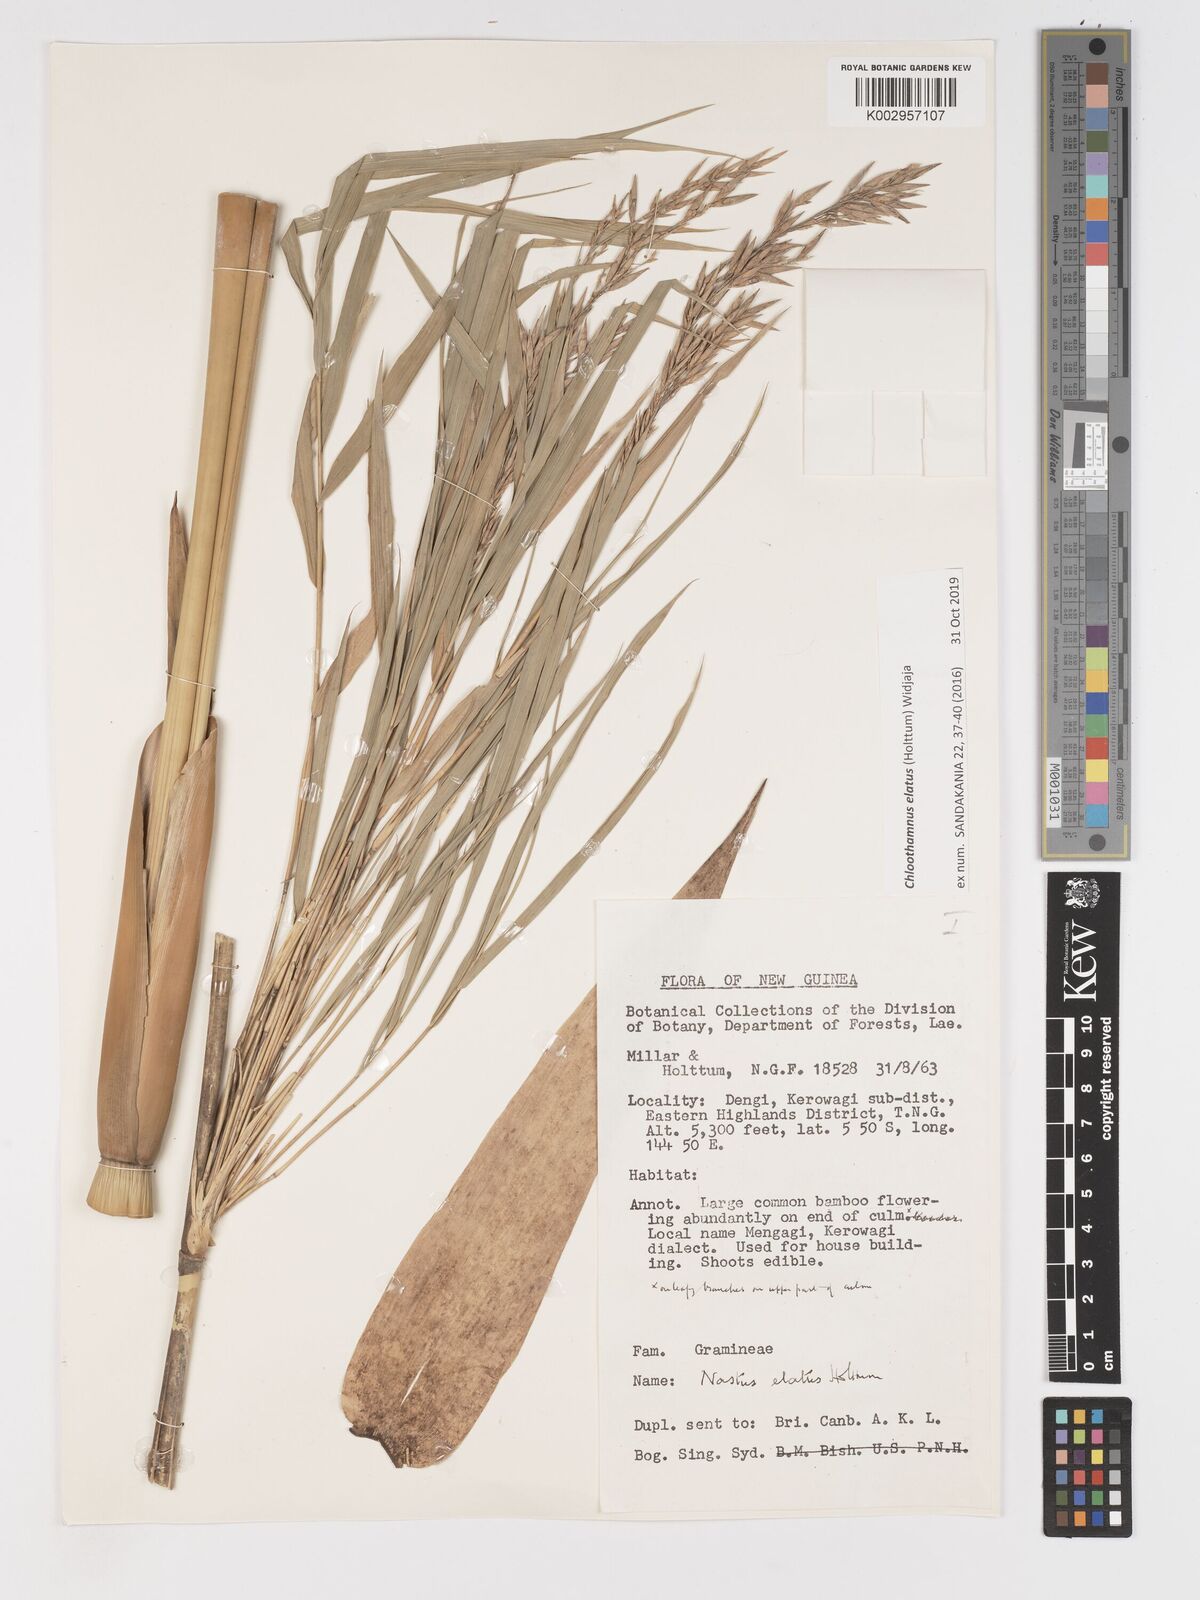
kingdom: Plantae
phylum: Tracheophyta
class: Liliopsida
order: Poales
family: Poaceae
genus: Chloothamnus
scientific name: Chloothamnus
